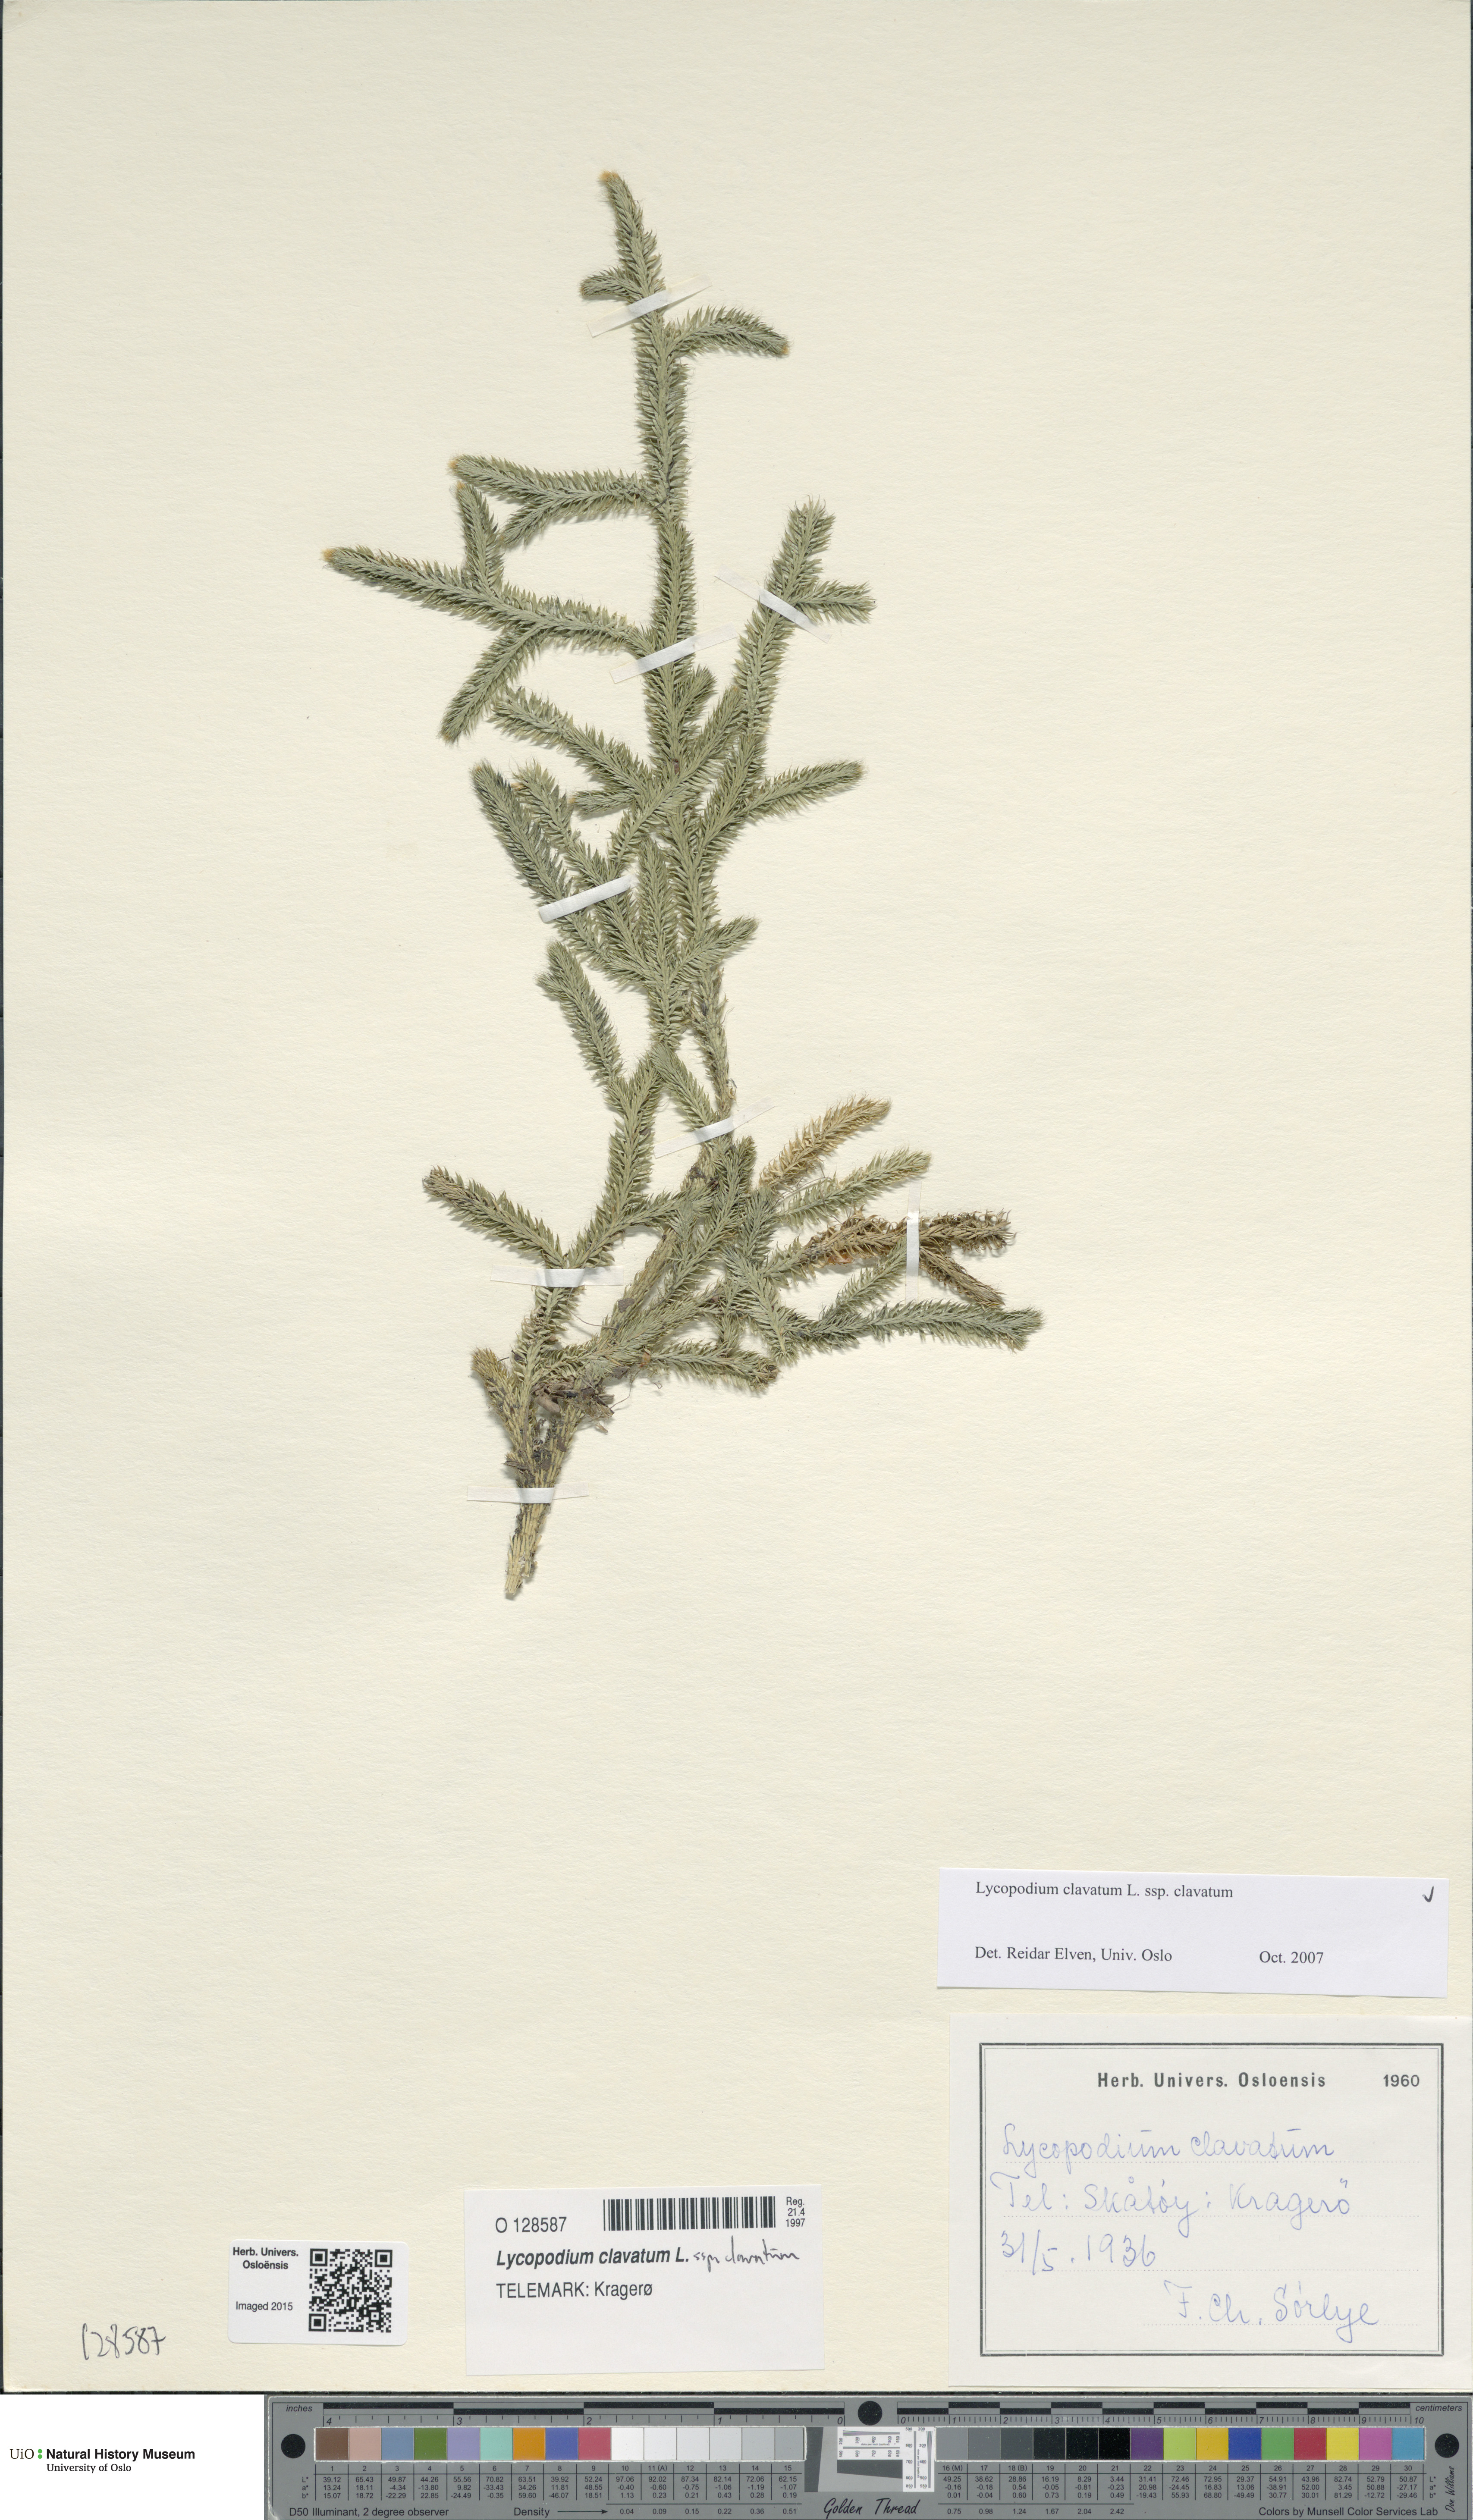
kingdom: Plantae
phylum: Tracheophyta
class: Lycopodiopsida
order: Lycopodiales
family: Lycopodiaceae
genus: Lycopodium
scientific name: Lycopodium clavatum
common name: Stag's-horn clubmoss
